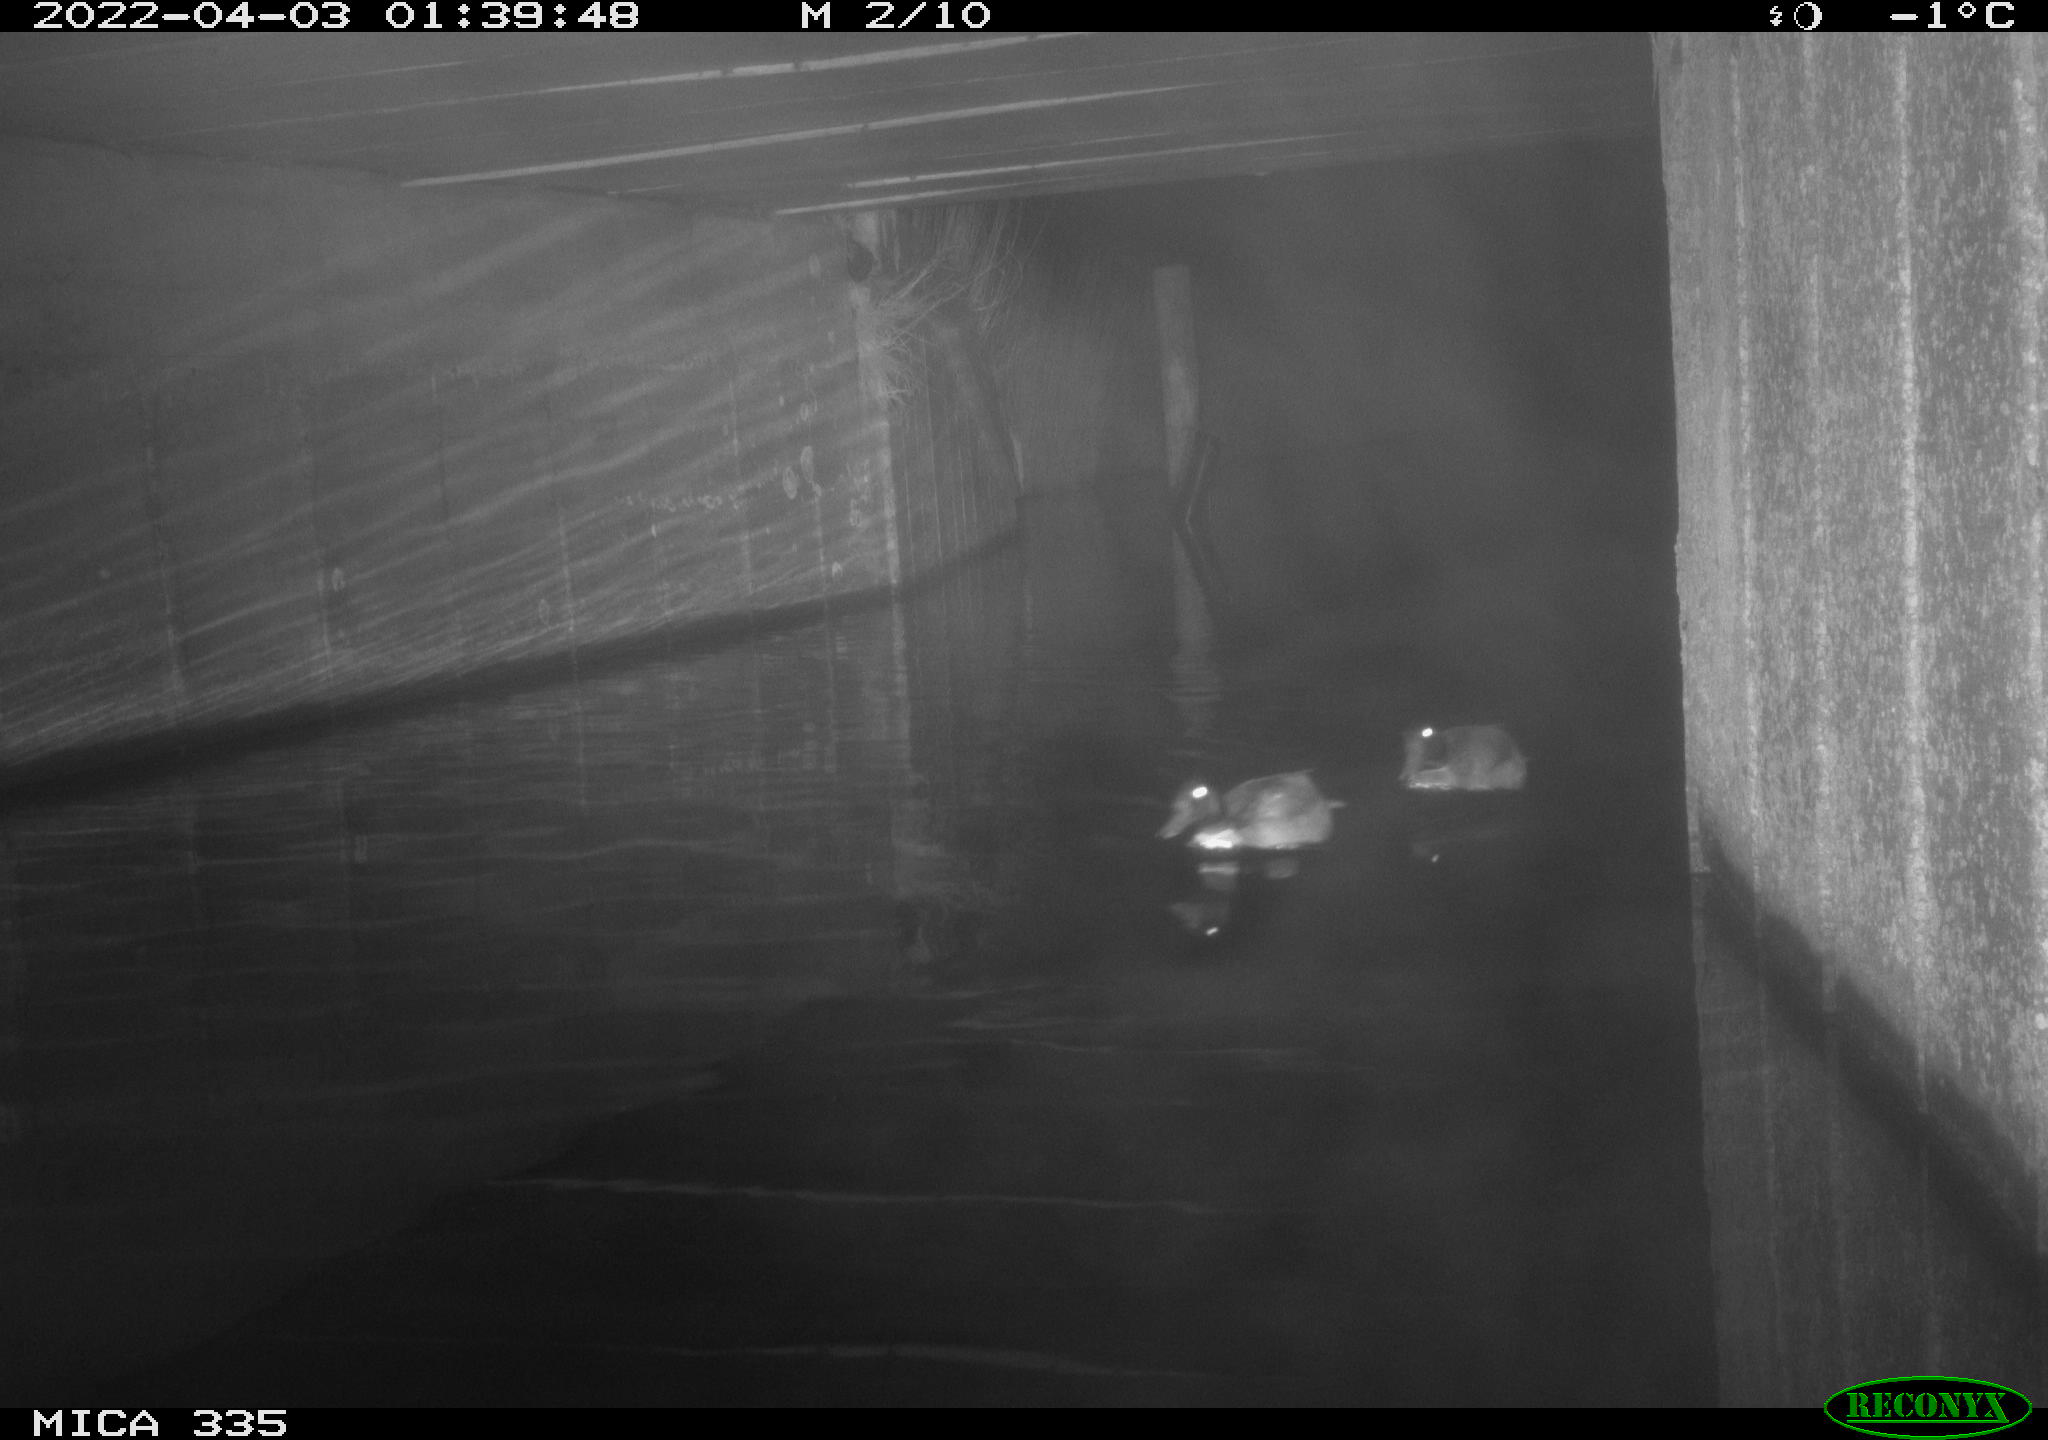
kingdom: Animalia
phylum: Chordata
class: Aves
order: Anseriformes
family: Anatidae
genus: Anas
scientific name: Anas platyrhynchos
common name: Mallard
